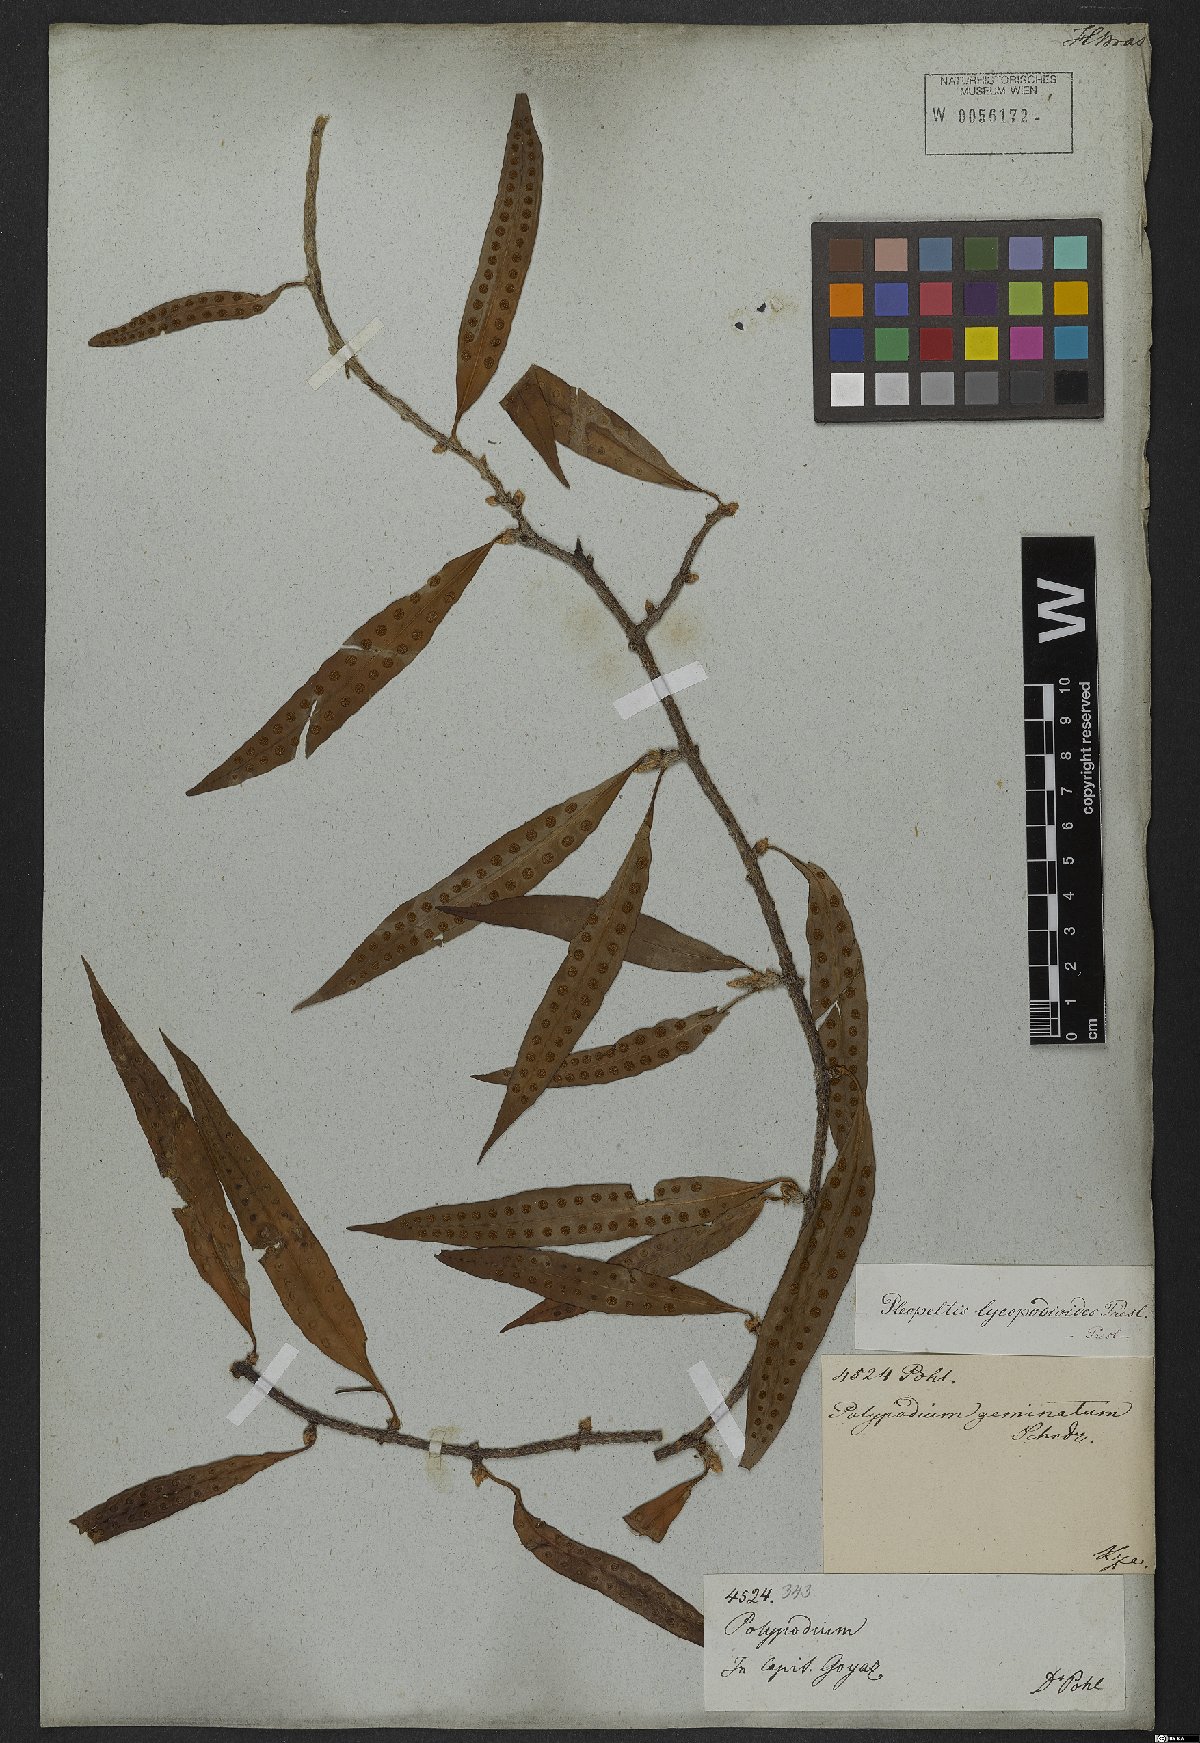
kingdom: Plantae
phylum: Tracheophyta
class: Polypodiopsida
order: Polypodiales
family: Polypodiaceae
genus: Microgramma
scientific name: Microgramma lycopodioides
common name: Bastard catclaw
